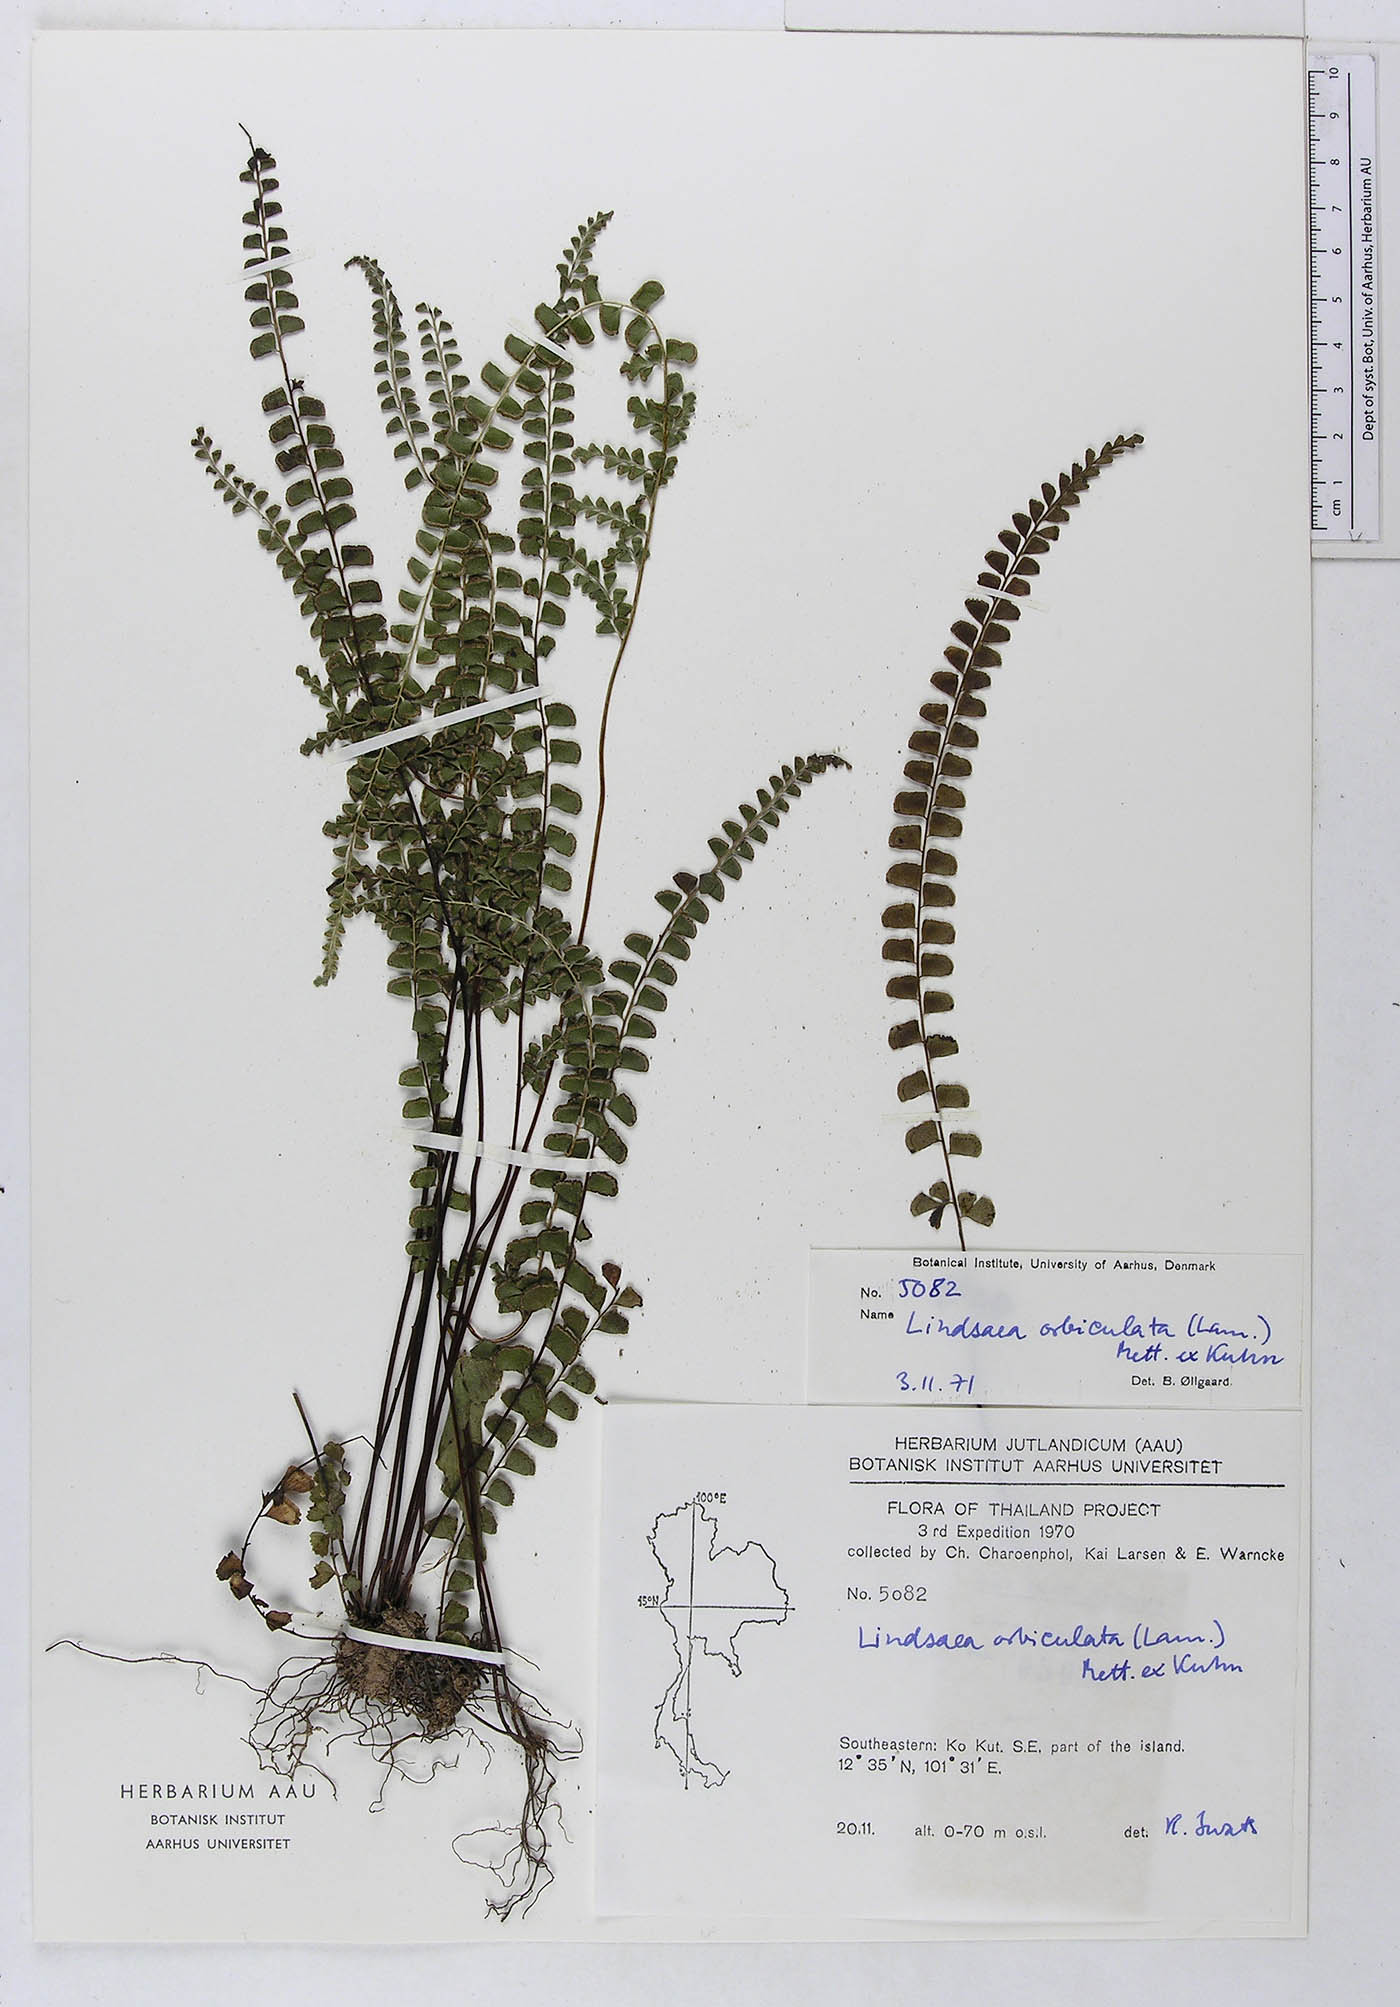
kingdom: Plantae
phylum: Tracheophyta
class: Polypodiopsida
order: Polypodiales
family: Lindsaeaceae
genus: Lindsaea
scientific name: Lindsaea orbiculata
